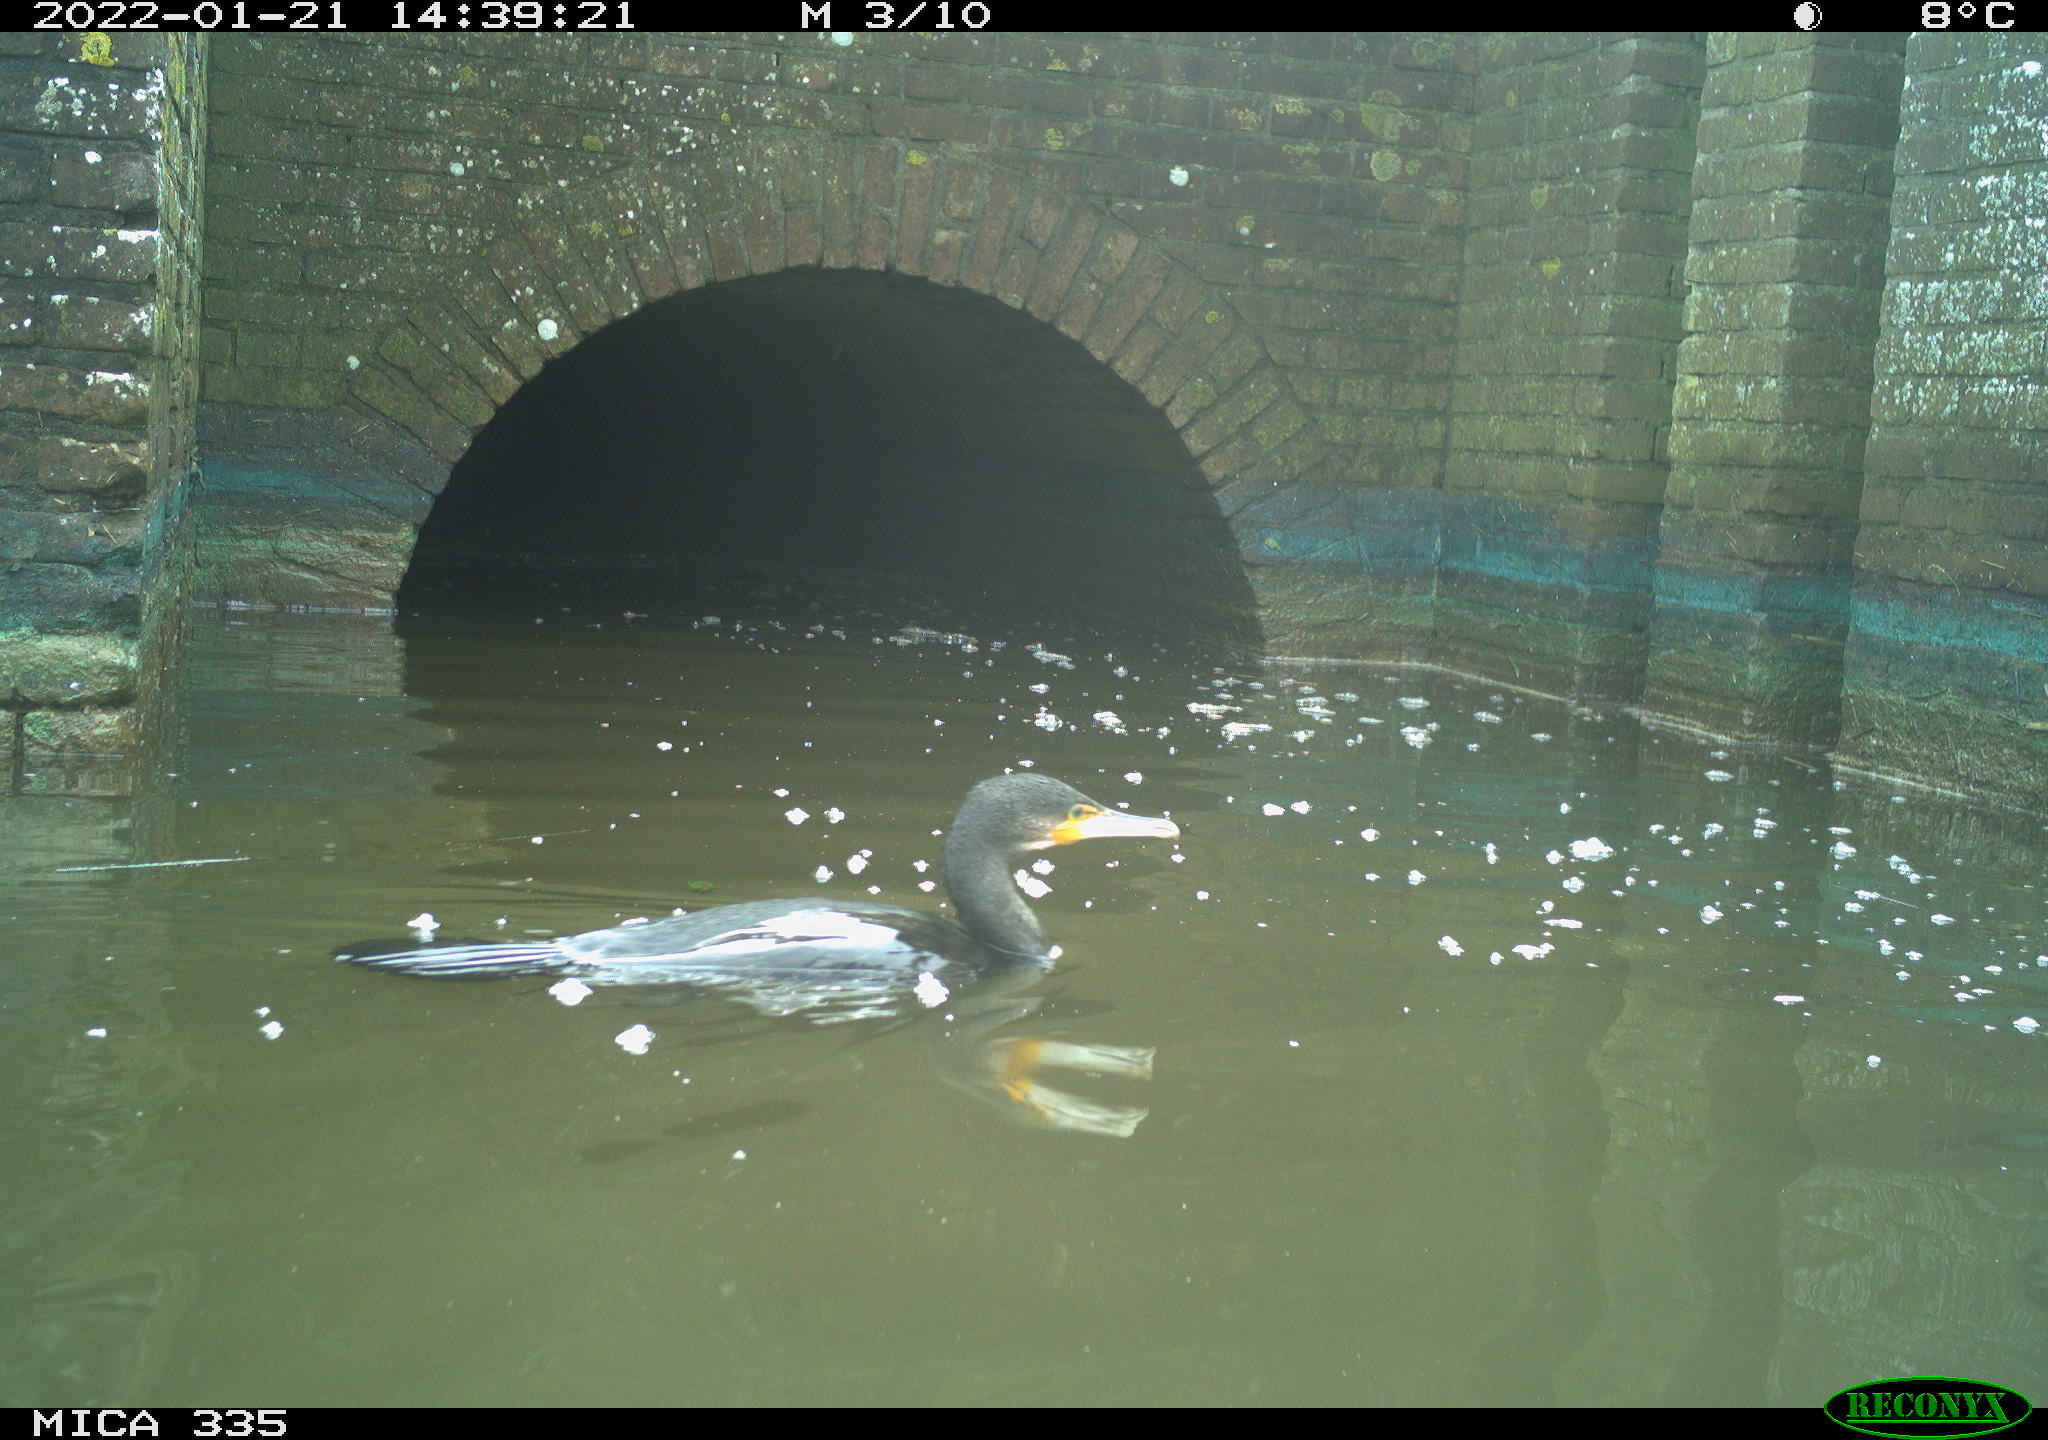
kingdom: Animalia
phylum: Chordata
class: Aves
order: Suliformes
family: Phalacrocoracidae
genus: Phalacrocorax
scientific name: Phalacrocorax carbo
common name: Great cormorant
